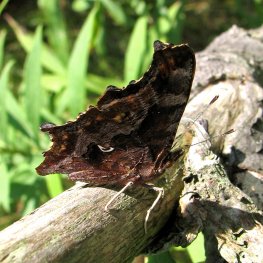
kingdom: Animalia
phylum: Arthropoda
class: Insecta
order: Lepidoptera
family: Nymphalidae
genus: Polygonia
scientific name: Polygonia comma
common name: Eastern Comma
